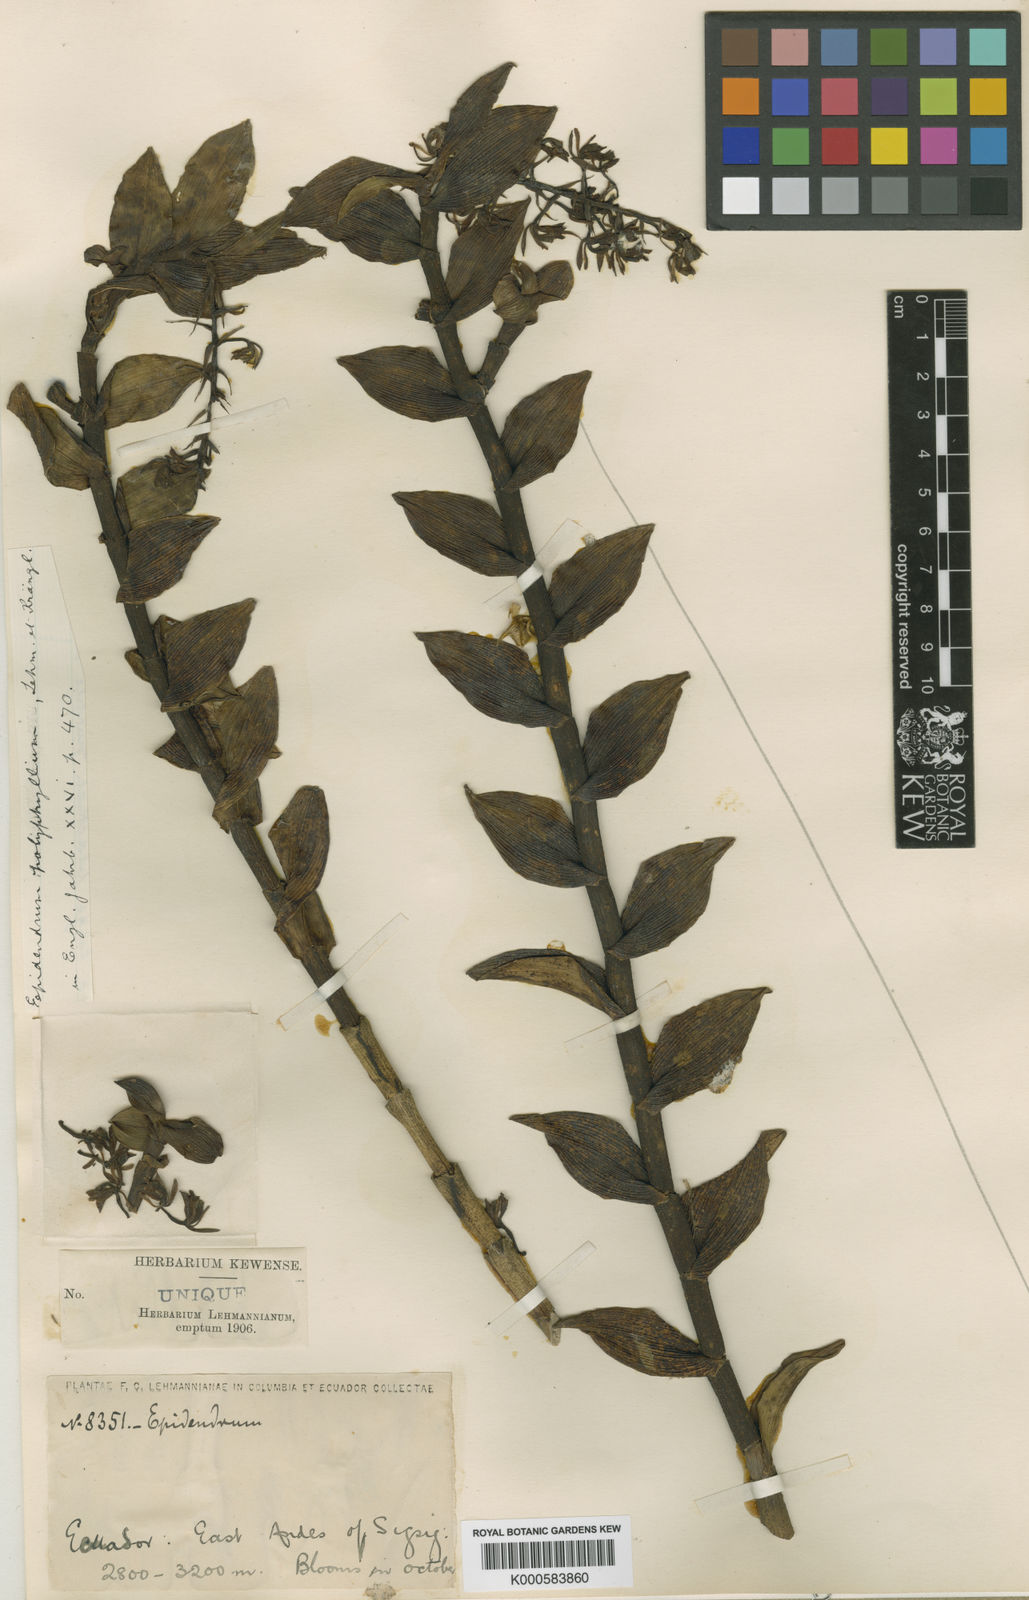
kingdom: Plantae
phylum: Tracheophyta
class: Liliopsida
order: Asparagales
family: Orchidaceae
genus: Epidendrum
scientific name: Epidendrum fritzianum
